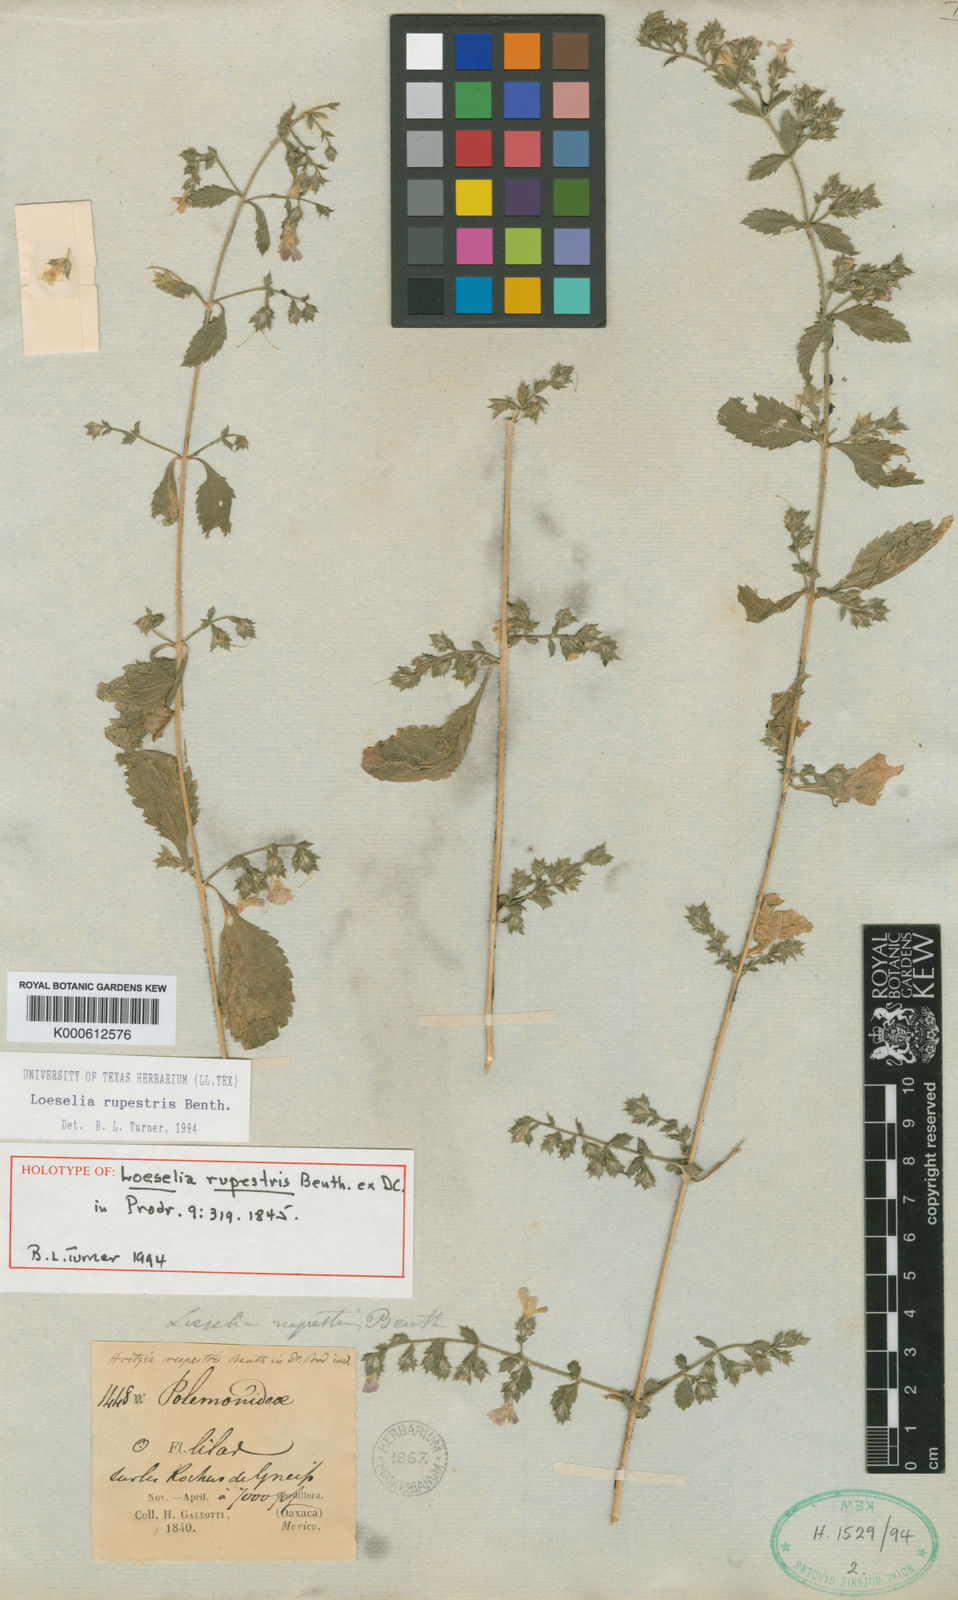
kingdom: Plantae
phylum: Tracheophyta
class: Magnoliopsida
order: Ericales
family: Polemoniaceae
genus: Loeselia
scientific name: Loeselia rupestris
